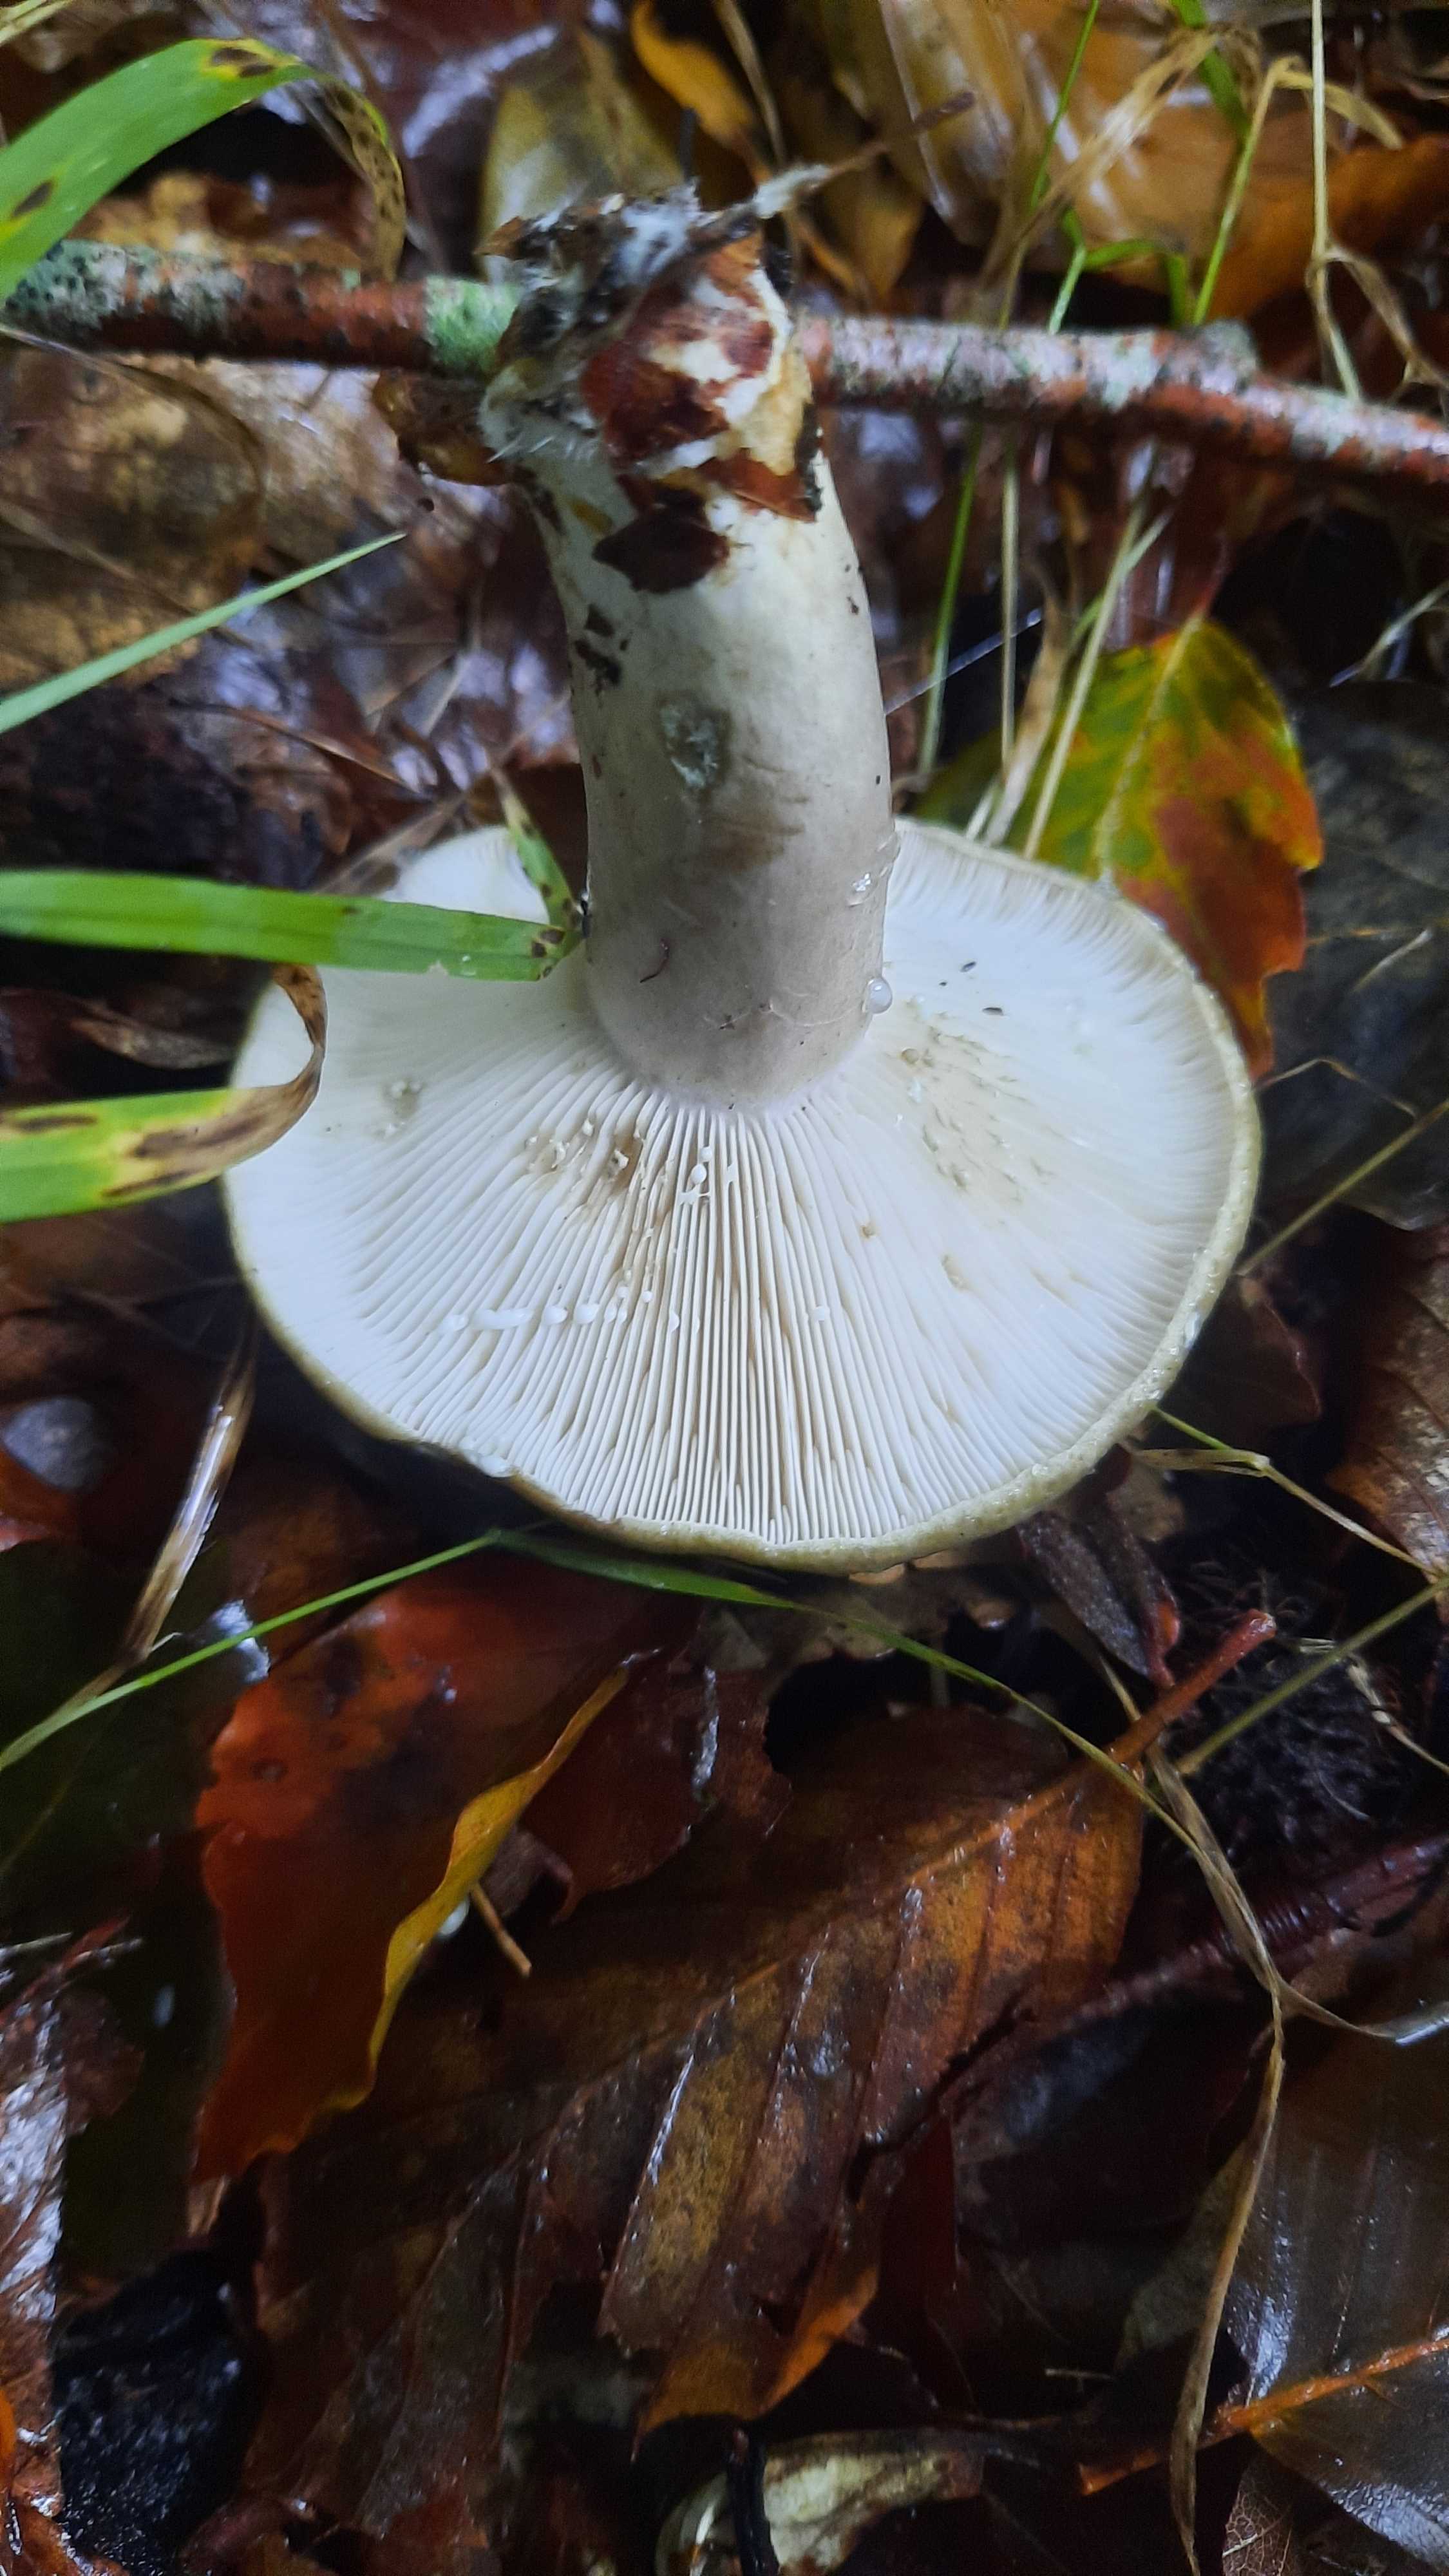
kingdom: Fungi
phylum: Basidiomycota
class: Agaricomycetes
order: Russulales
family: Russulaceae
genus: Lactarius
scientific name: Lactarius blennius
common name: dråbeplettet mælkehat
